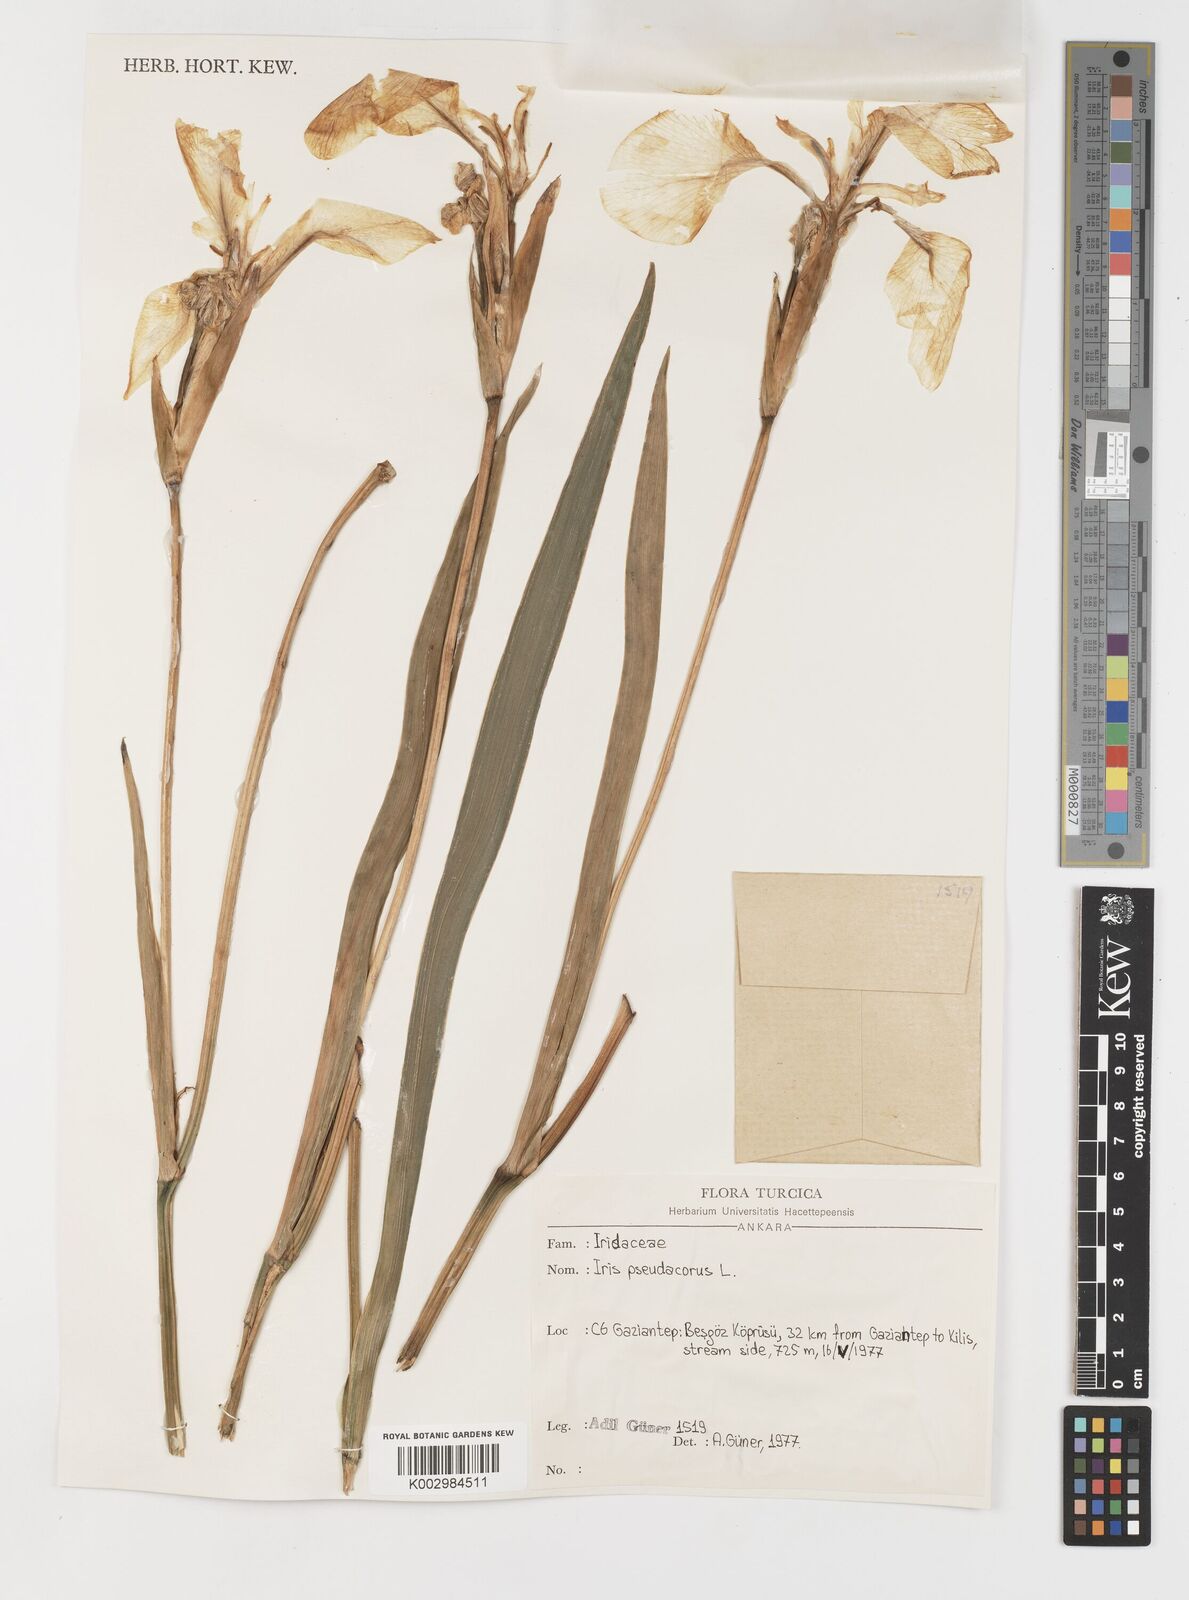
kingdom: Plantae
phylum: Tracheophyta
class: Liliopsida
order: Asparagales
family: Iridaceae
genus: Iris
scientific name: Iris pseudacorus
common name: Yellow flag
